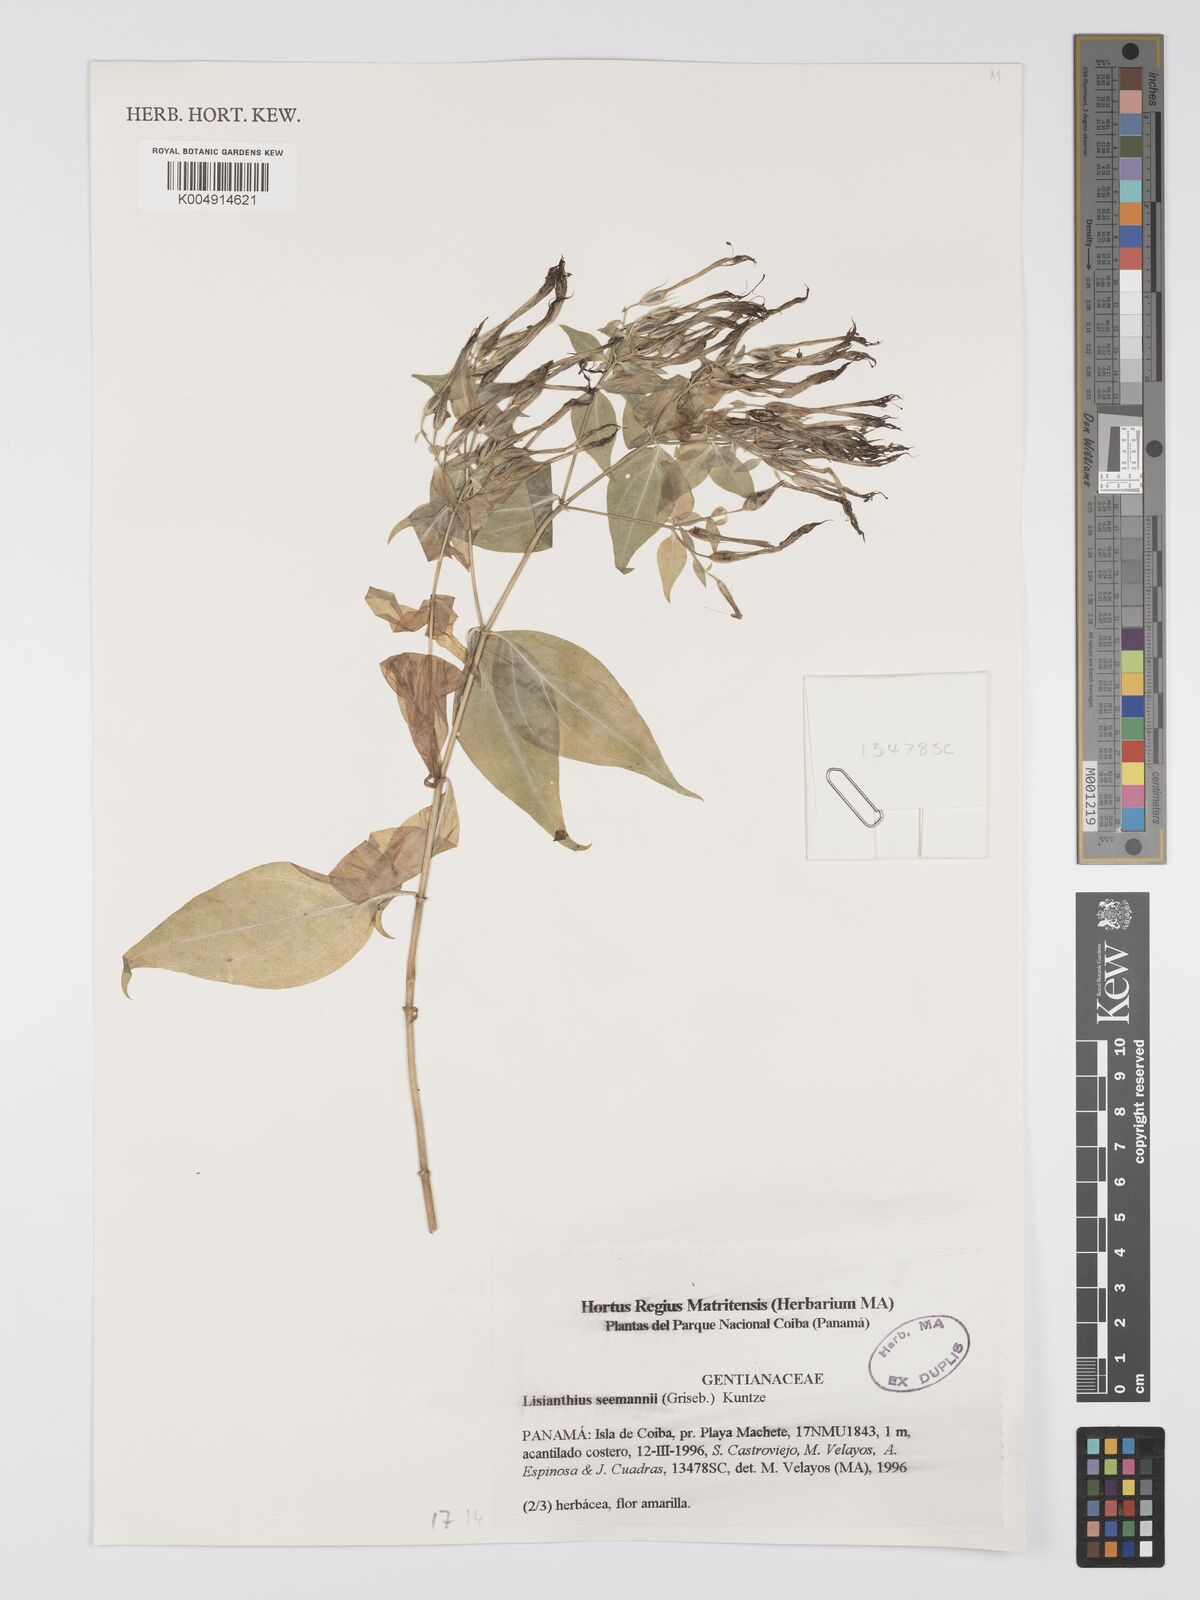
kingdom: Plantae
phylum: Tracheophyta
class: Magnoliopsida
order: Gentianales
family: Gentianaceae
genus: Lisianthus
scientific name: Lisianthus seemannii
